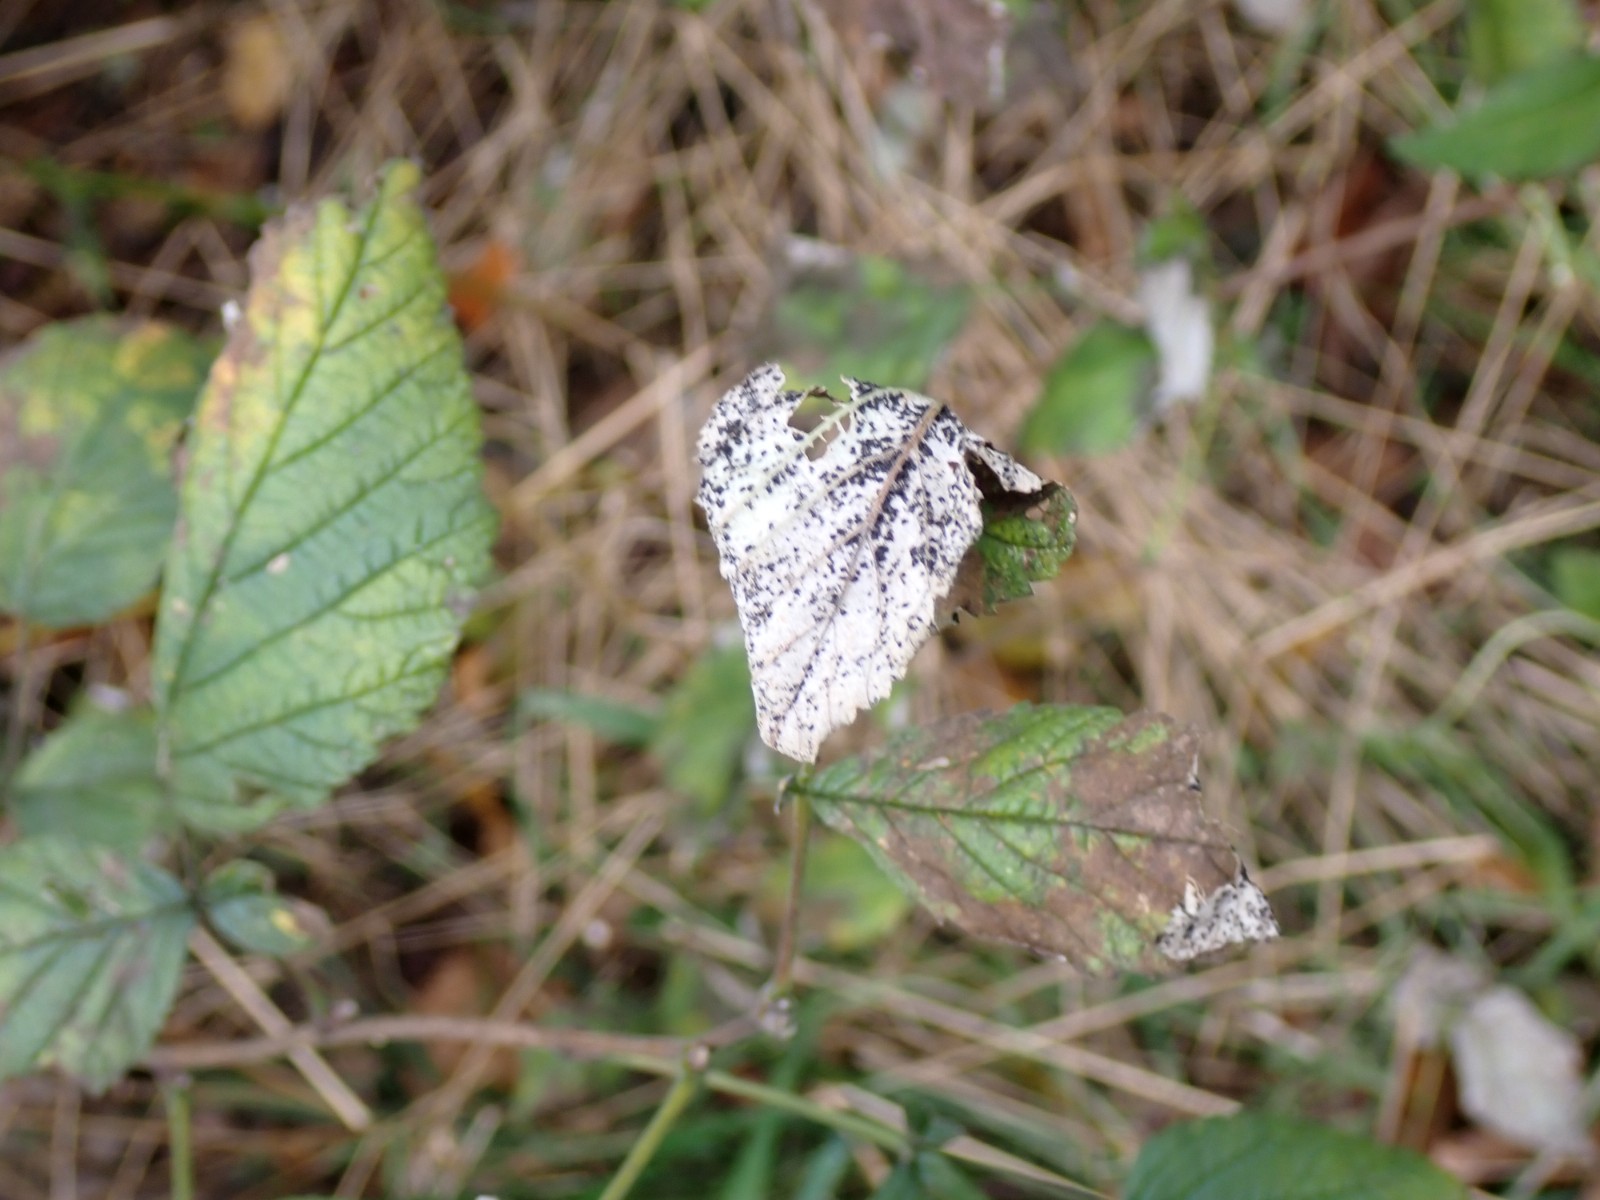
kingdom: Fungi
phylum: Basidiomycota
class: Pucciniomycetes
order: Pucciniales
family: Phragmidiaceae
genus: Phragmidium
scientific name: Phragmidium rubi-idaei
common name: hindbær-flercellerust
